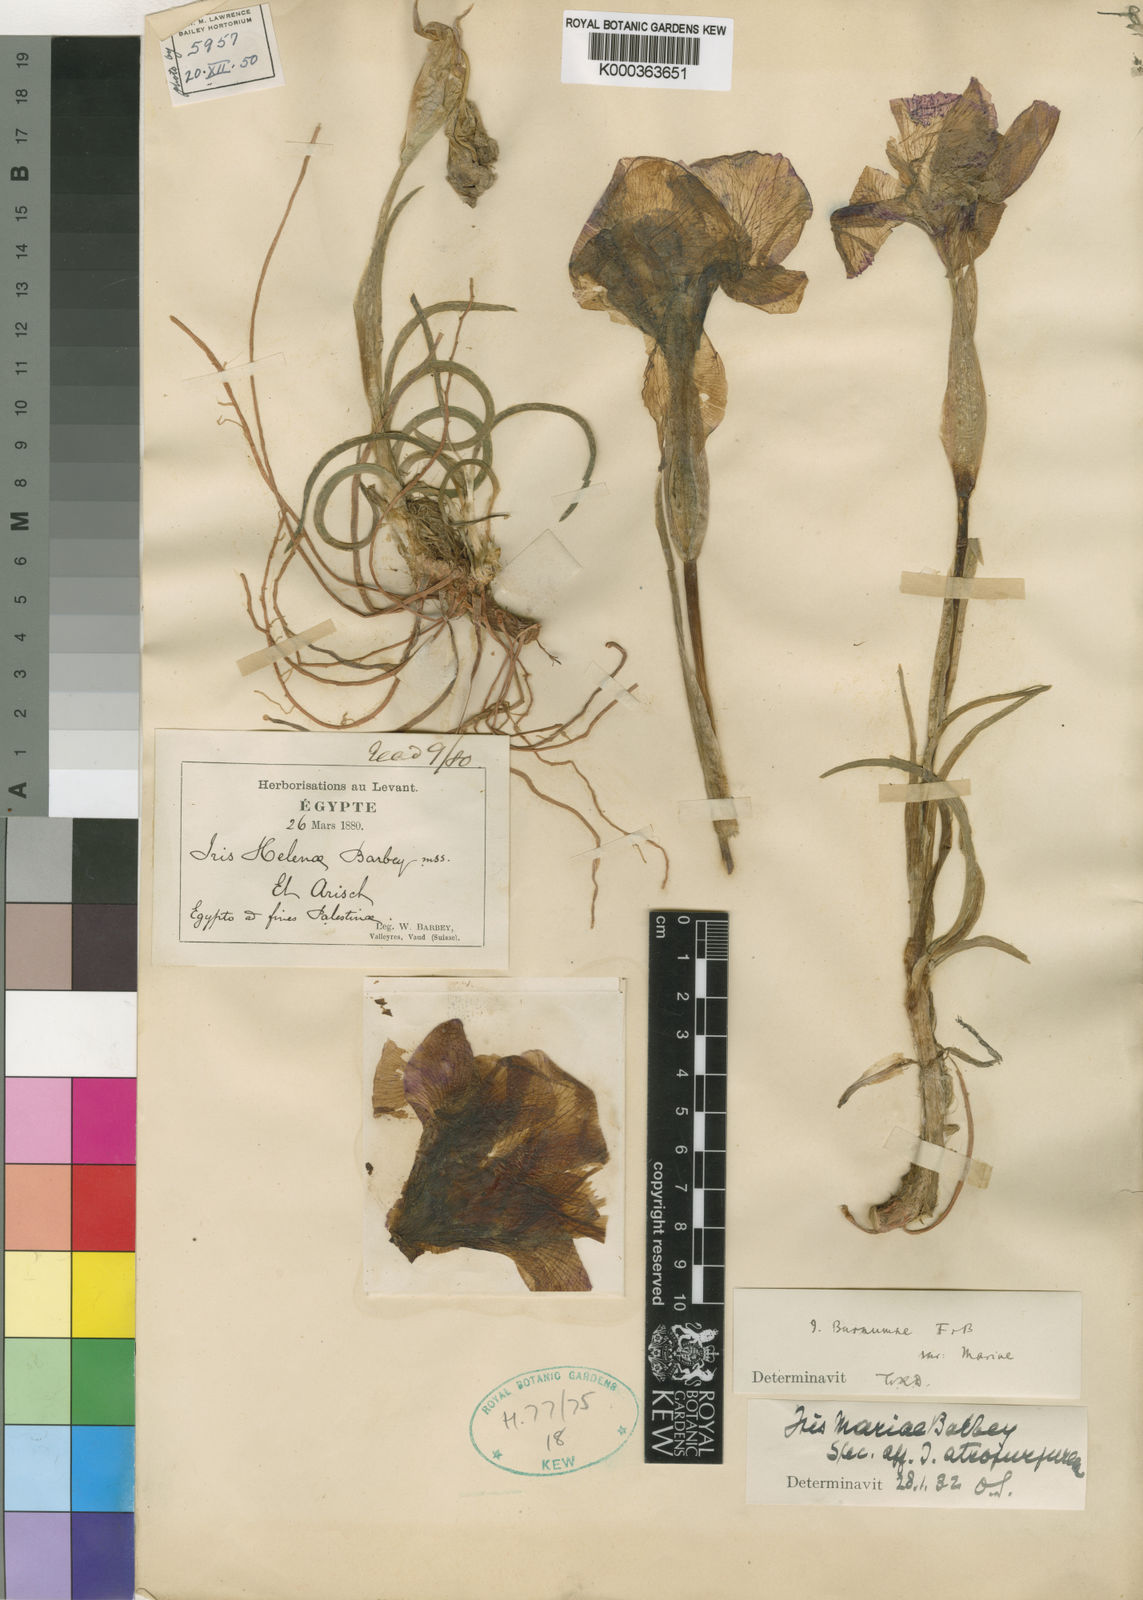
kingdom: Plantae
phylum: Tracheophyta
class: Liliopsida
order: Asparagales
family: Iridaceae
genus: Iris
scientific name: Iris mariae
